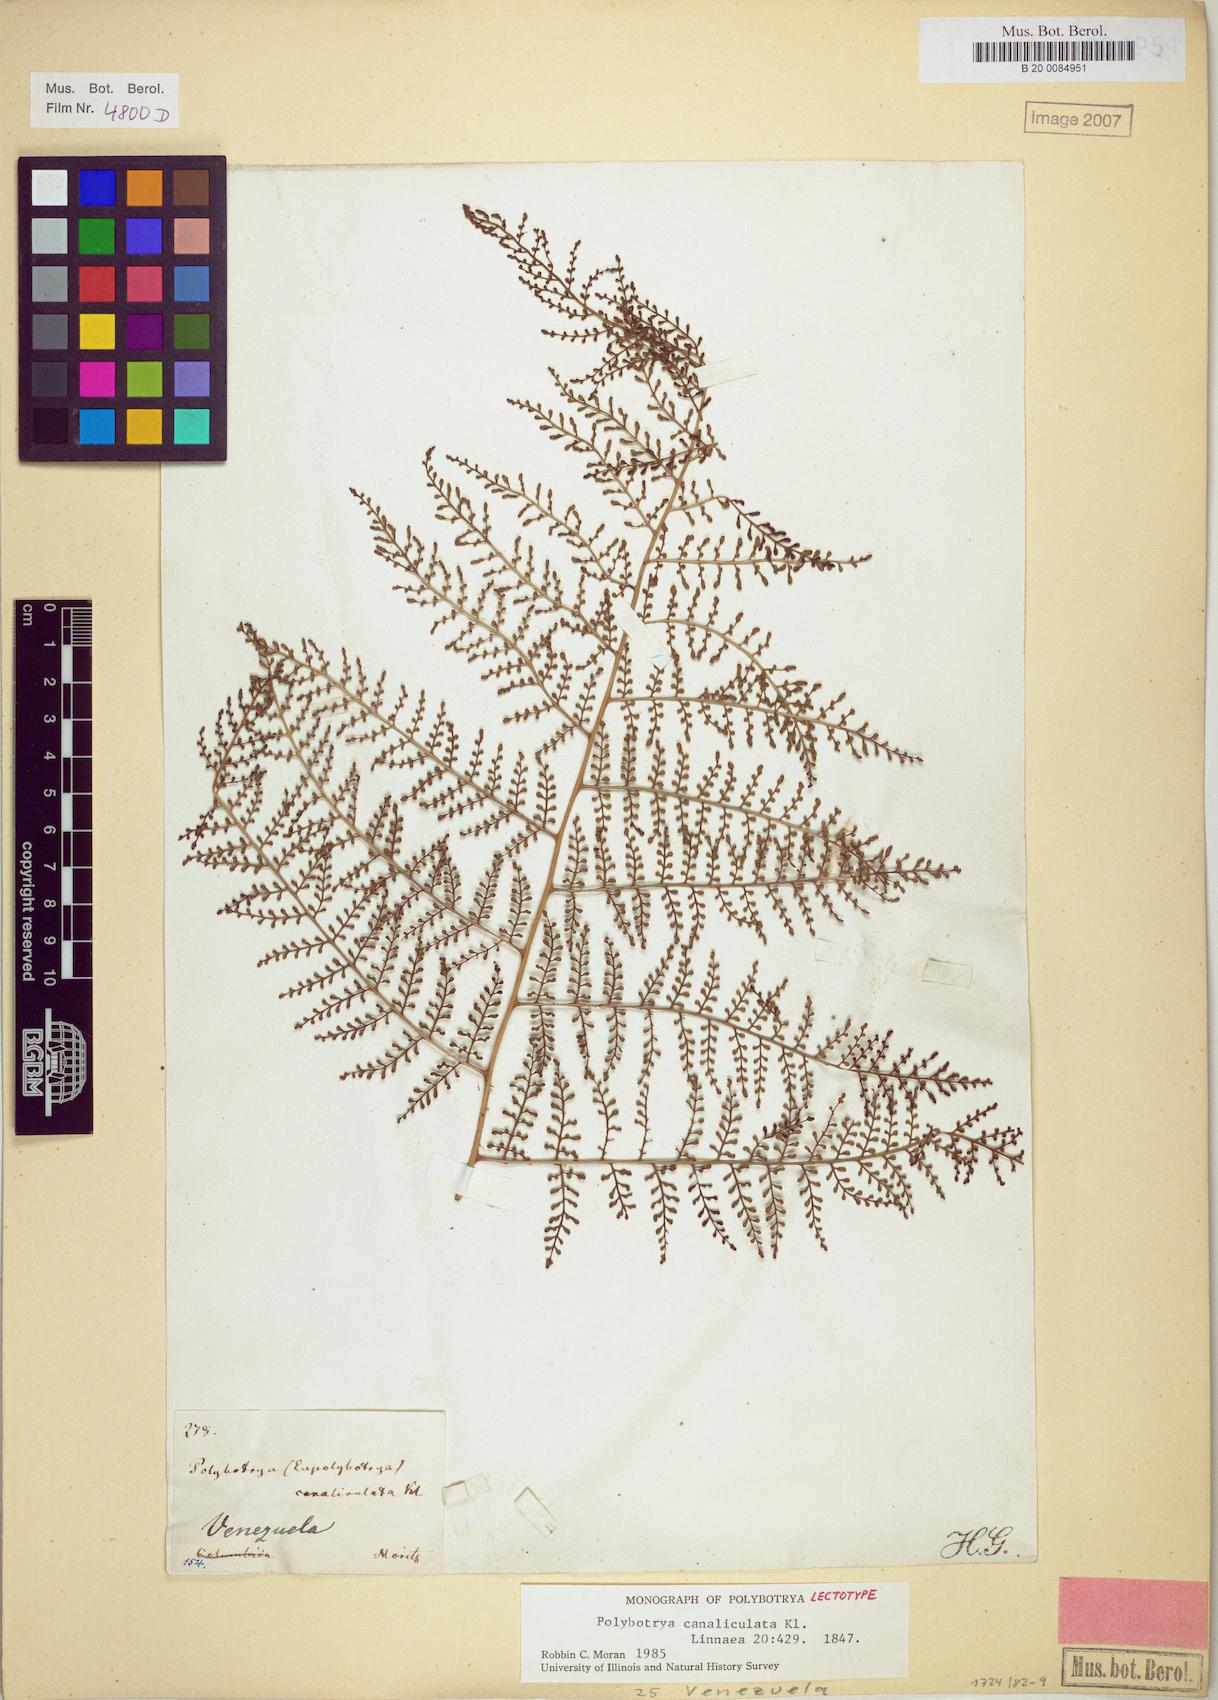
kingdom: Plantae
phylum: Tracheophyta
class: Polypodiopsida
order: Polypodiales
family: Dryopteridaceae
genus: Polybotrya
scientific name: Polybotrya canaliculata
